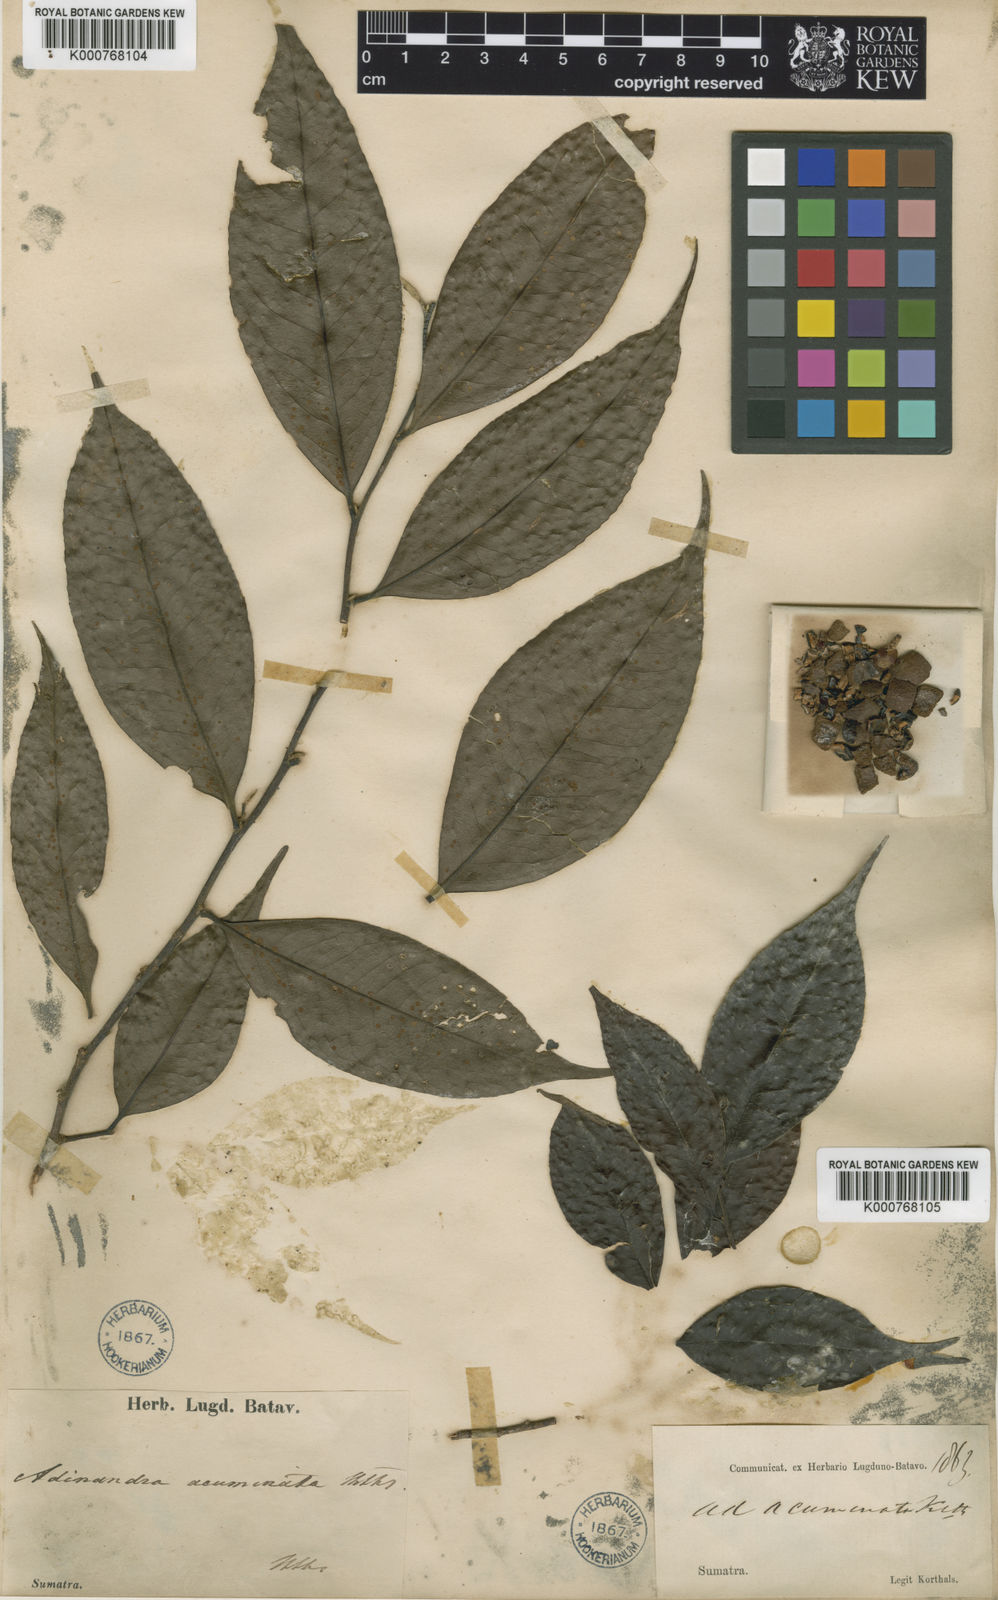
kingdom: Plantae
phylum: Tracheophyta
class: Magnoliopsida
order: Ericales
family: Pentaphylacaceae
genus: Adinandra
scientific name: Adinandra
